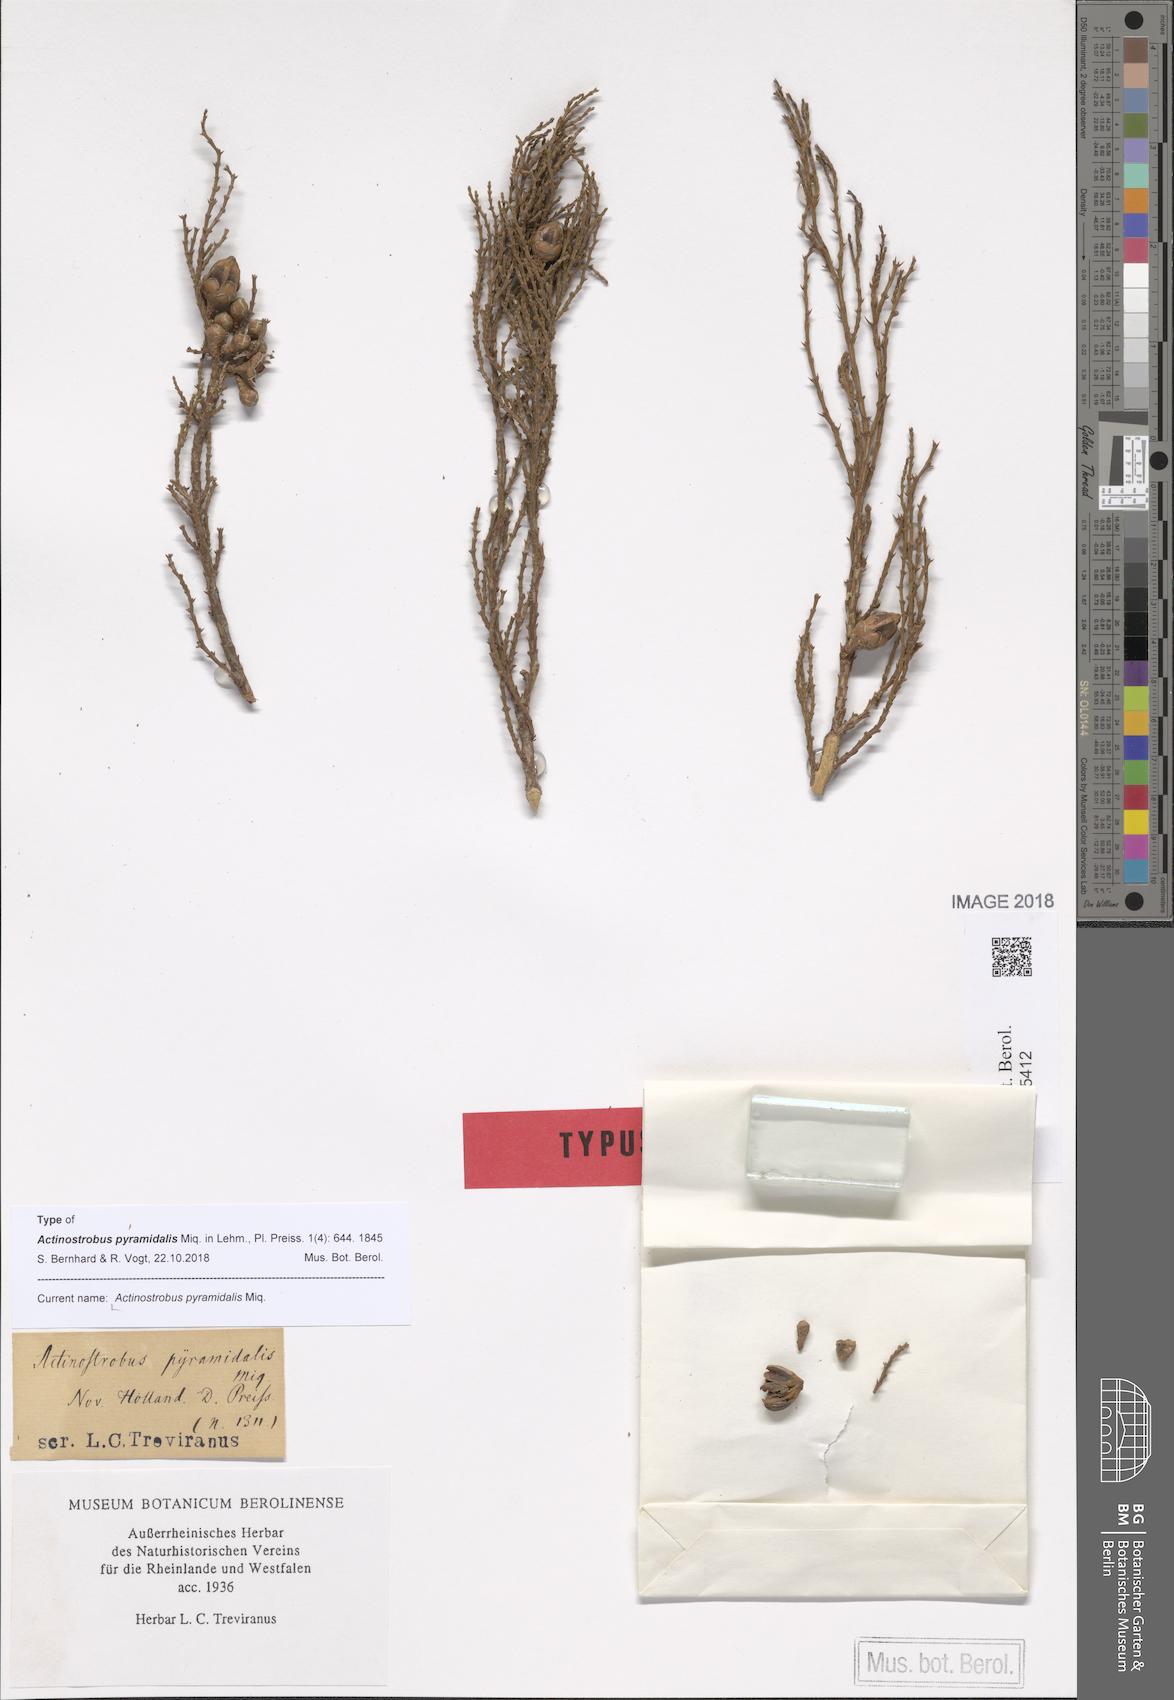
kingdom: Plantae
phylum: Tracheophyta
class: Pinopsida
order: Pinales
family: Cupressaceae
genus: Actinostrobus
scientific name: Actinostrobus pyramidalis
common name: Swamp-cypress
